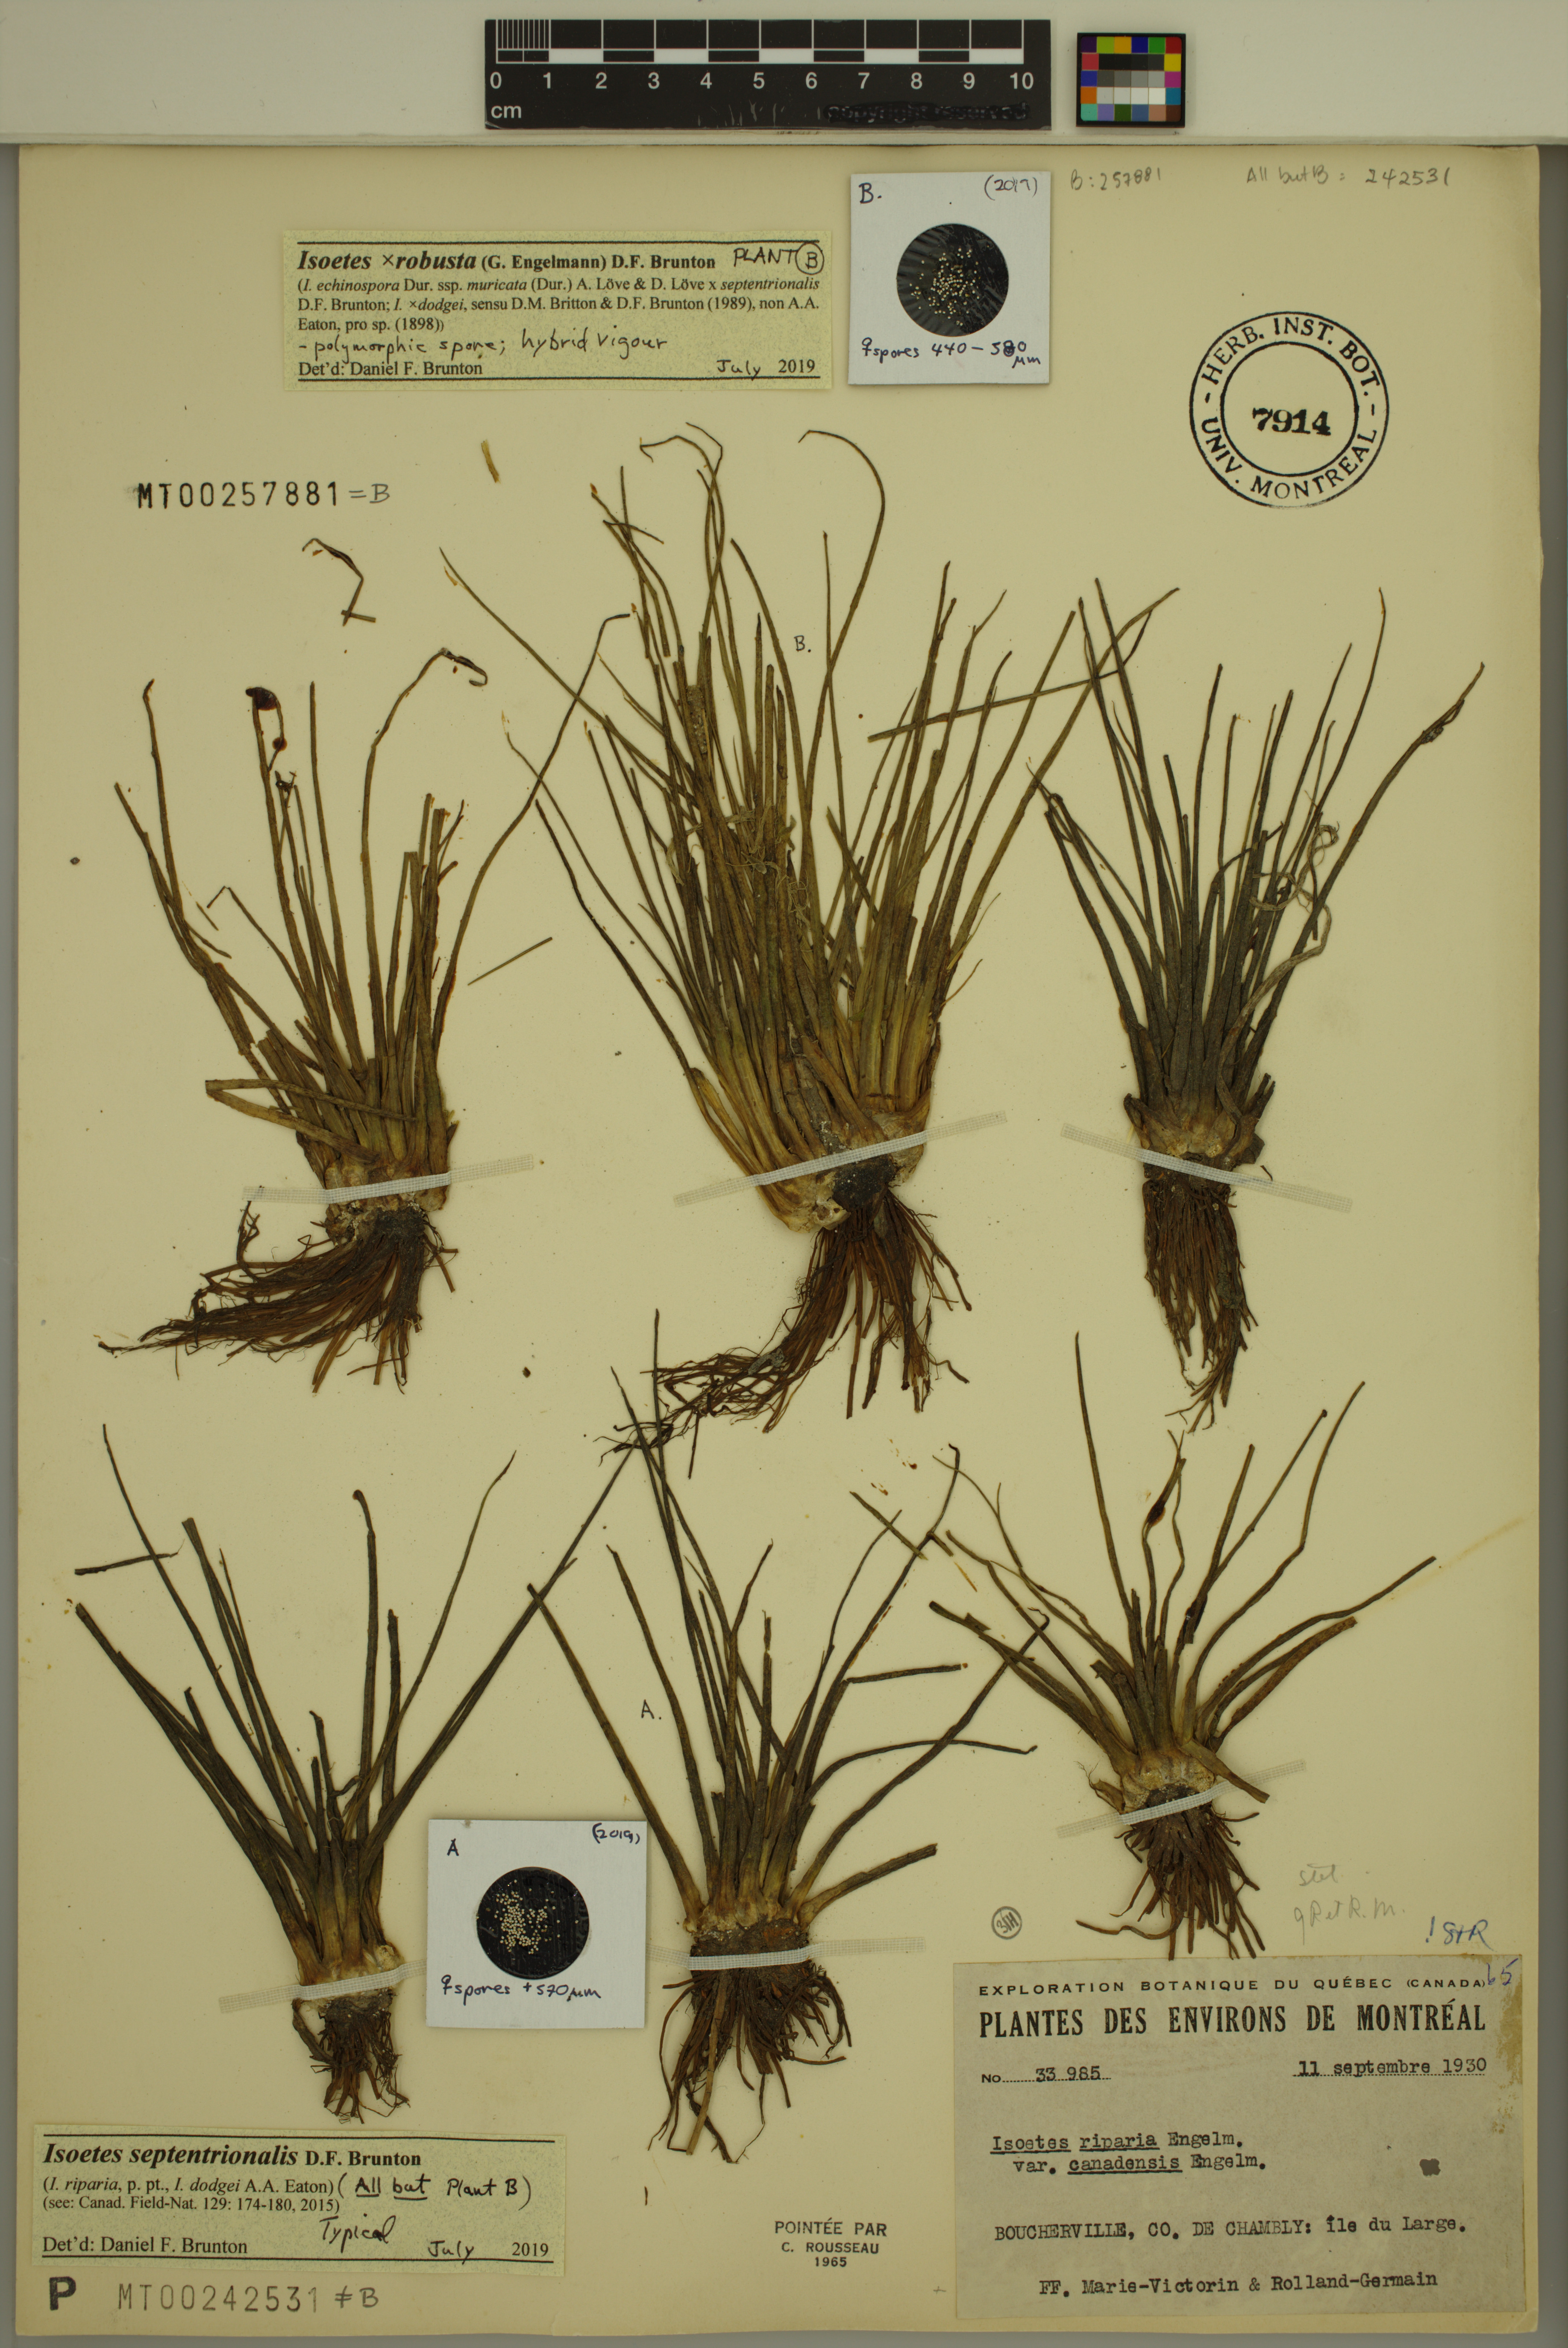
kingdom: Plantae
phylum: Tracheophyta
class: Lycopodiopsida
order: Isoetales
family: Isoetaceae
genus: Isoetes
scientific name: Isoetes septentrionalis
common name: Northern quillwort
